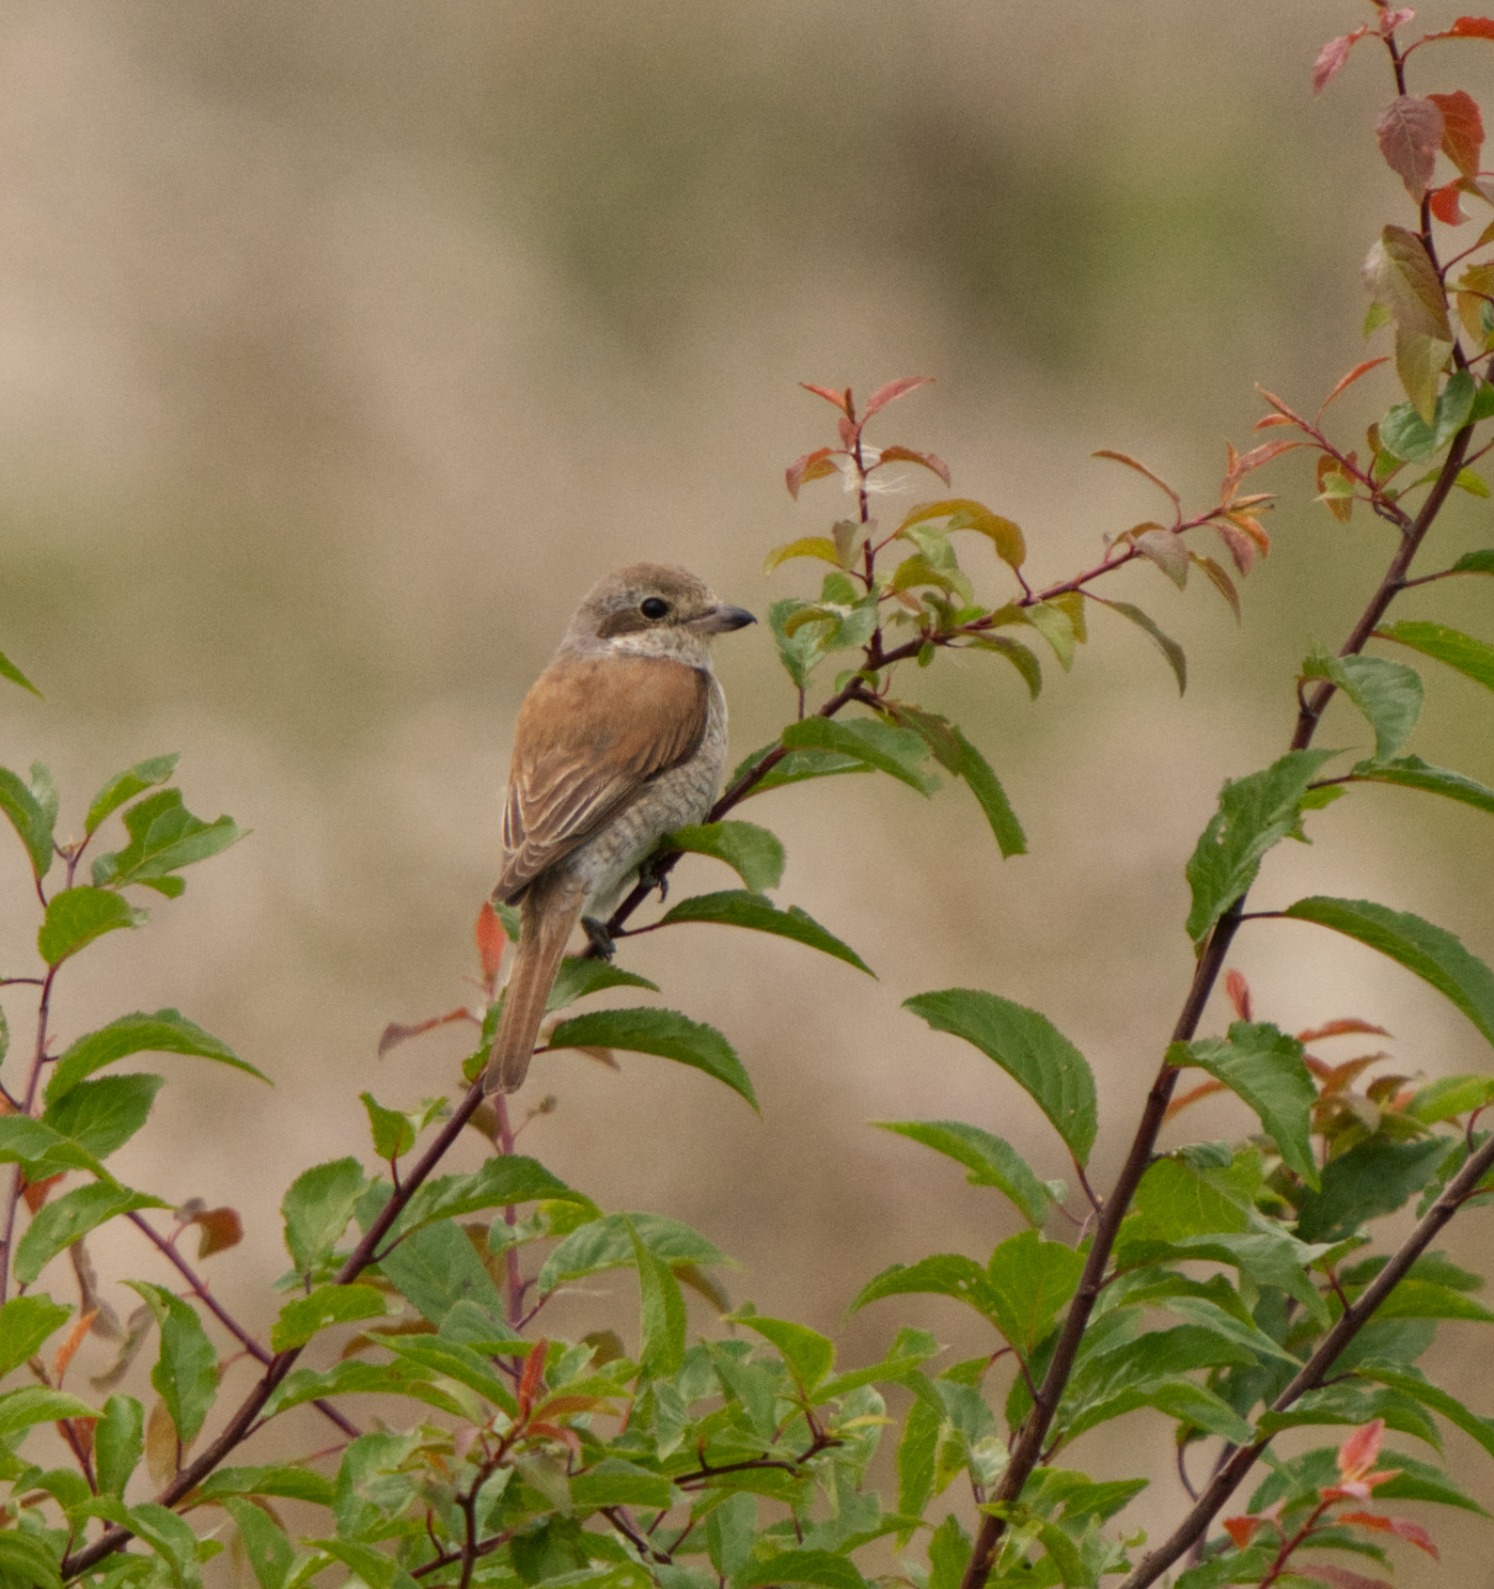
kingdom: Animalia
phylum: Chordata
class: Aves
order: Passeriformes
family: Laniidae
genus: Lanius
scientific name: Lanius collurio
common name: Rødrygget tornskade
